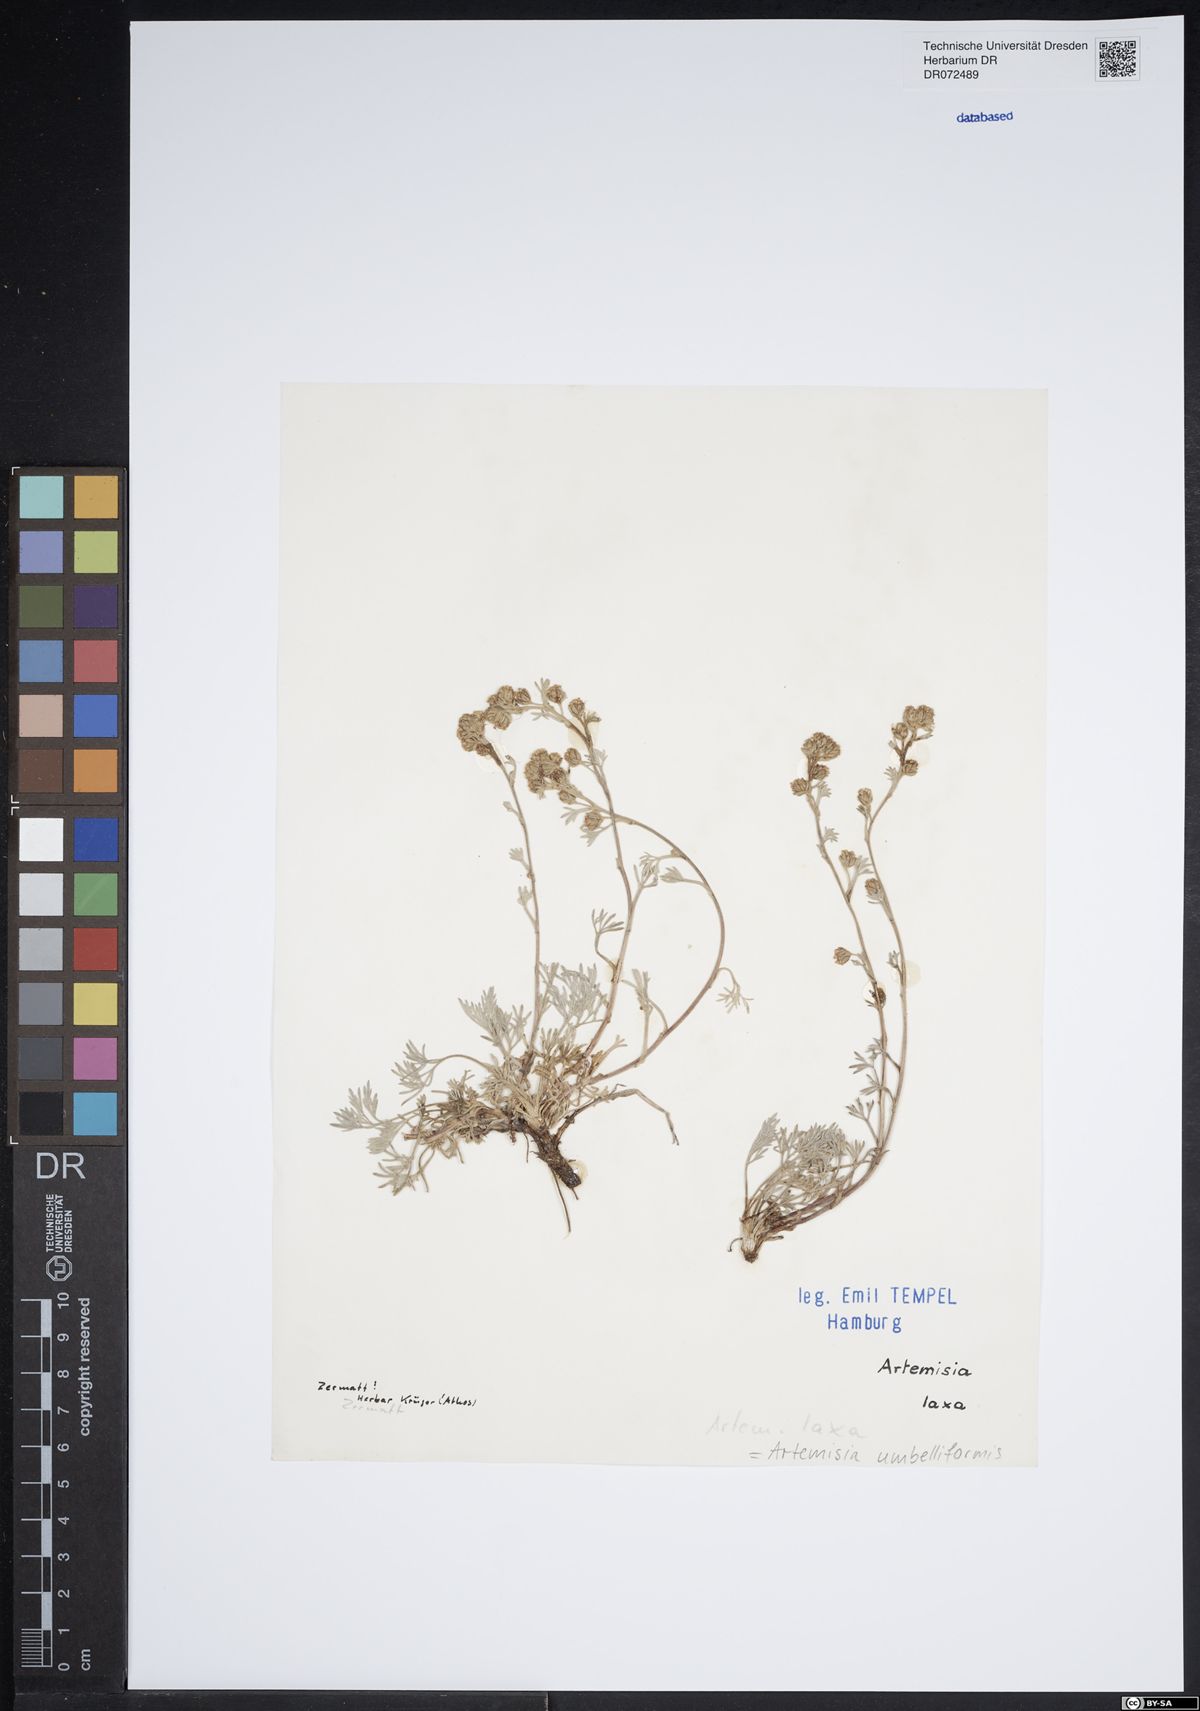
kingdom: Plantae
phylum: Tracheophyta
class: Magnoliopsida
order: Asterales
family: Asteraceae
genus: Artemisia
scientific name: Artemisia mutellina
